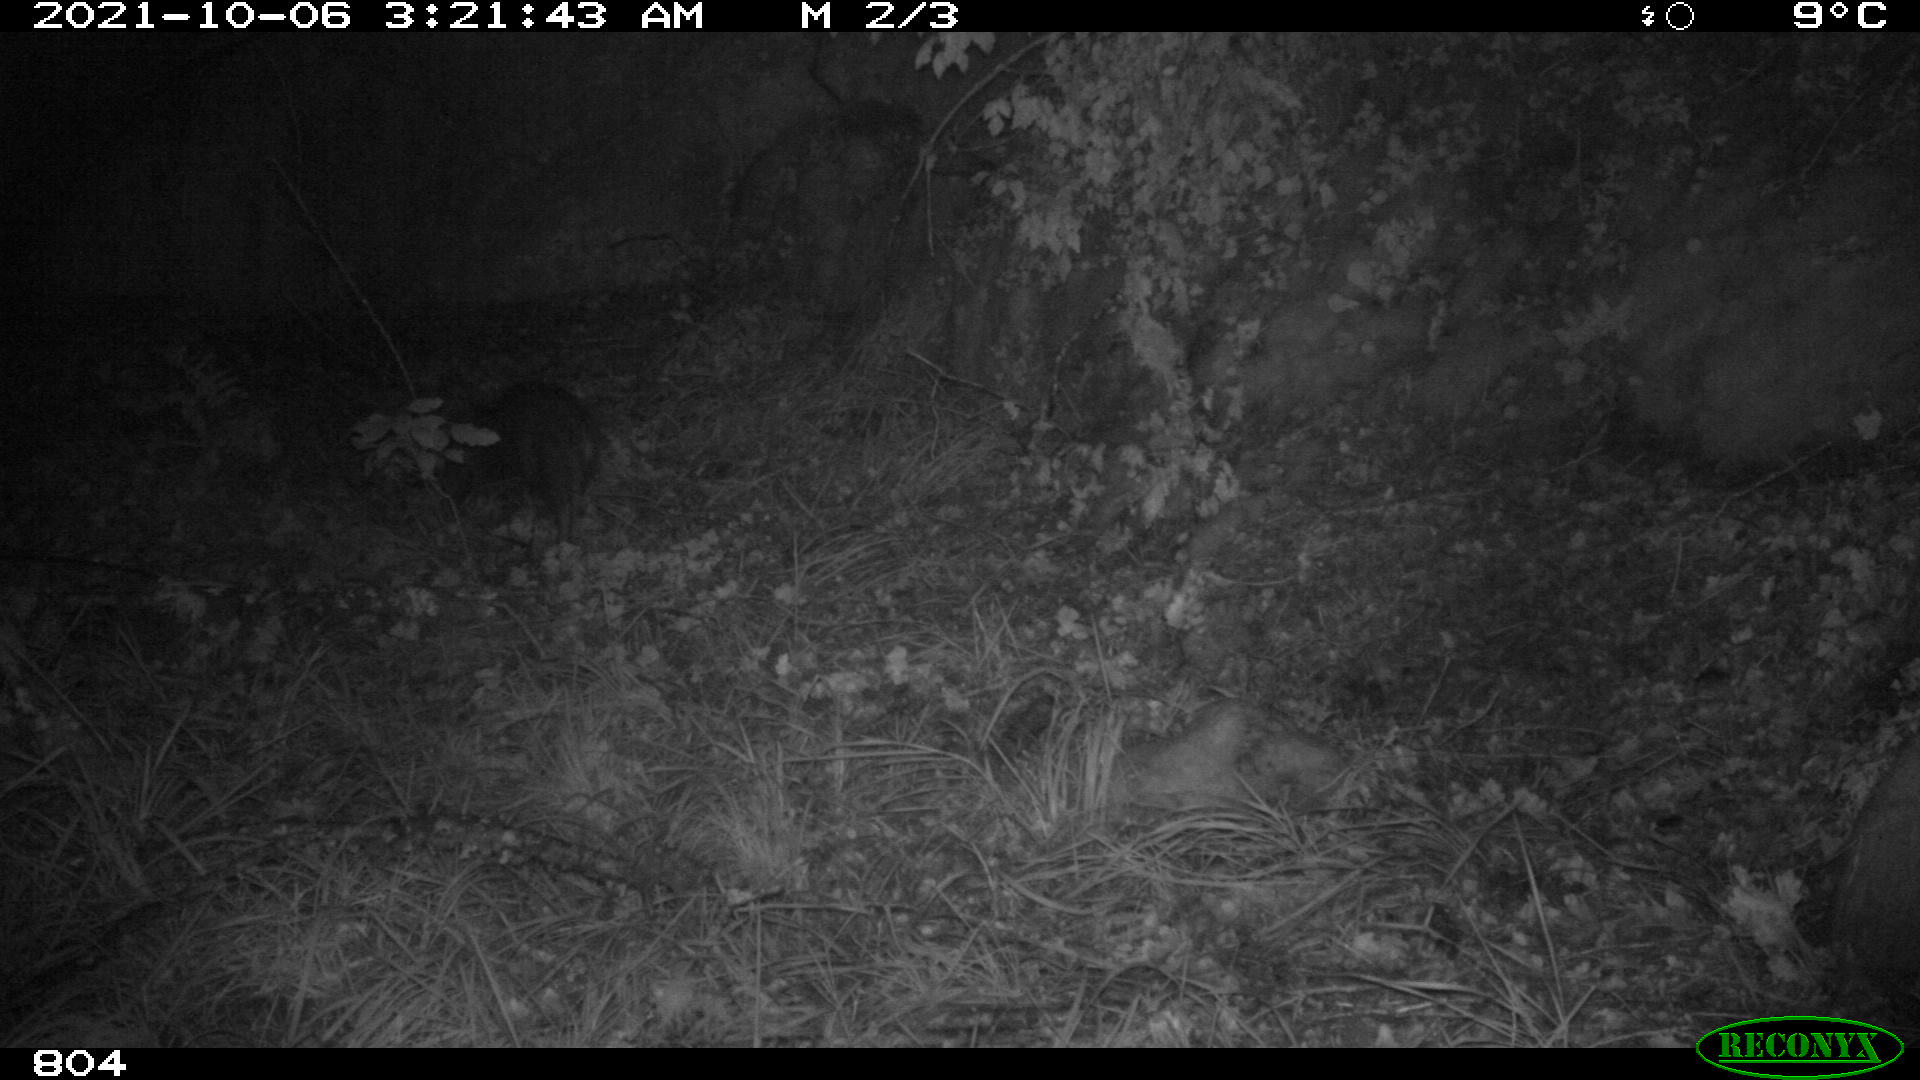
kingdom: Animalia
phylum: Chordata
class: Mammalia
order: Artiodactyla
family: Suidae
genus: Sus
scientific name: Sus scrofa
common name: Wild boar
